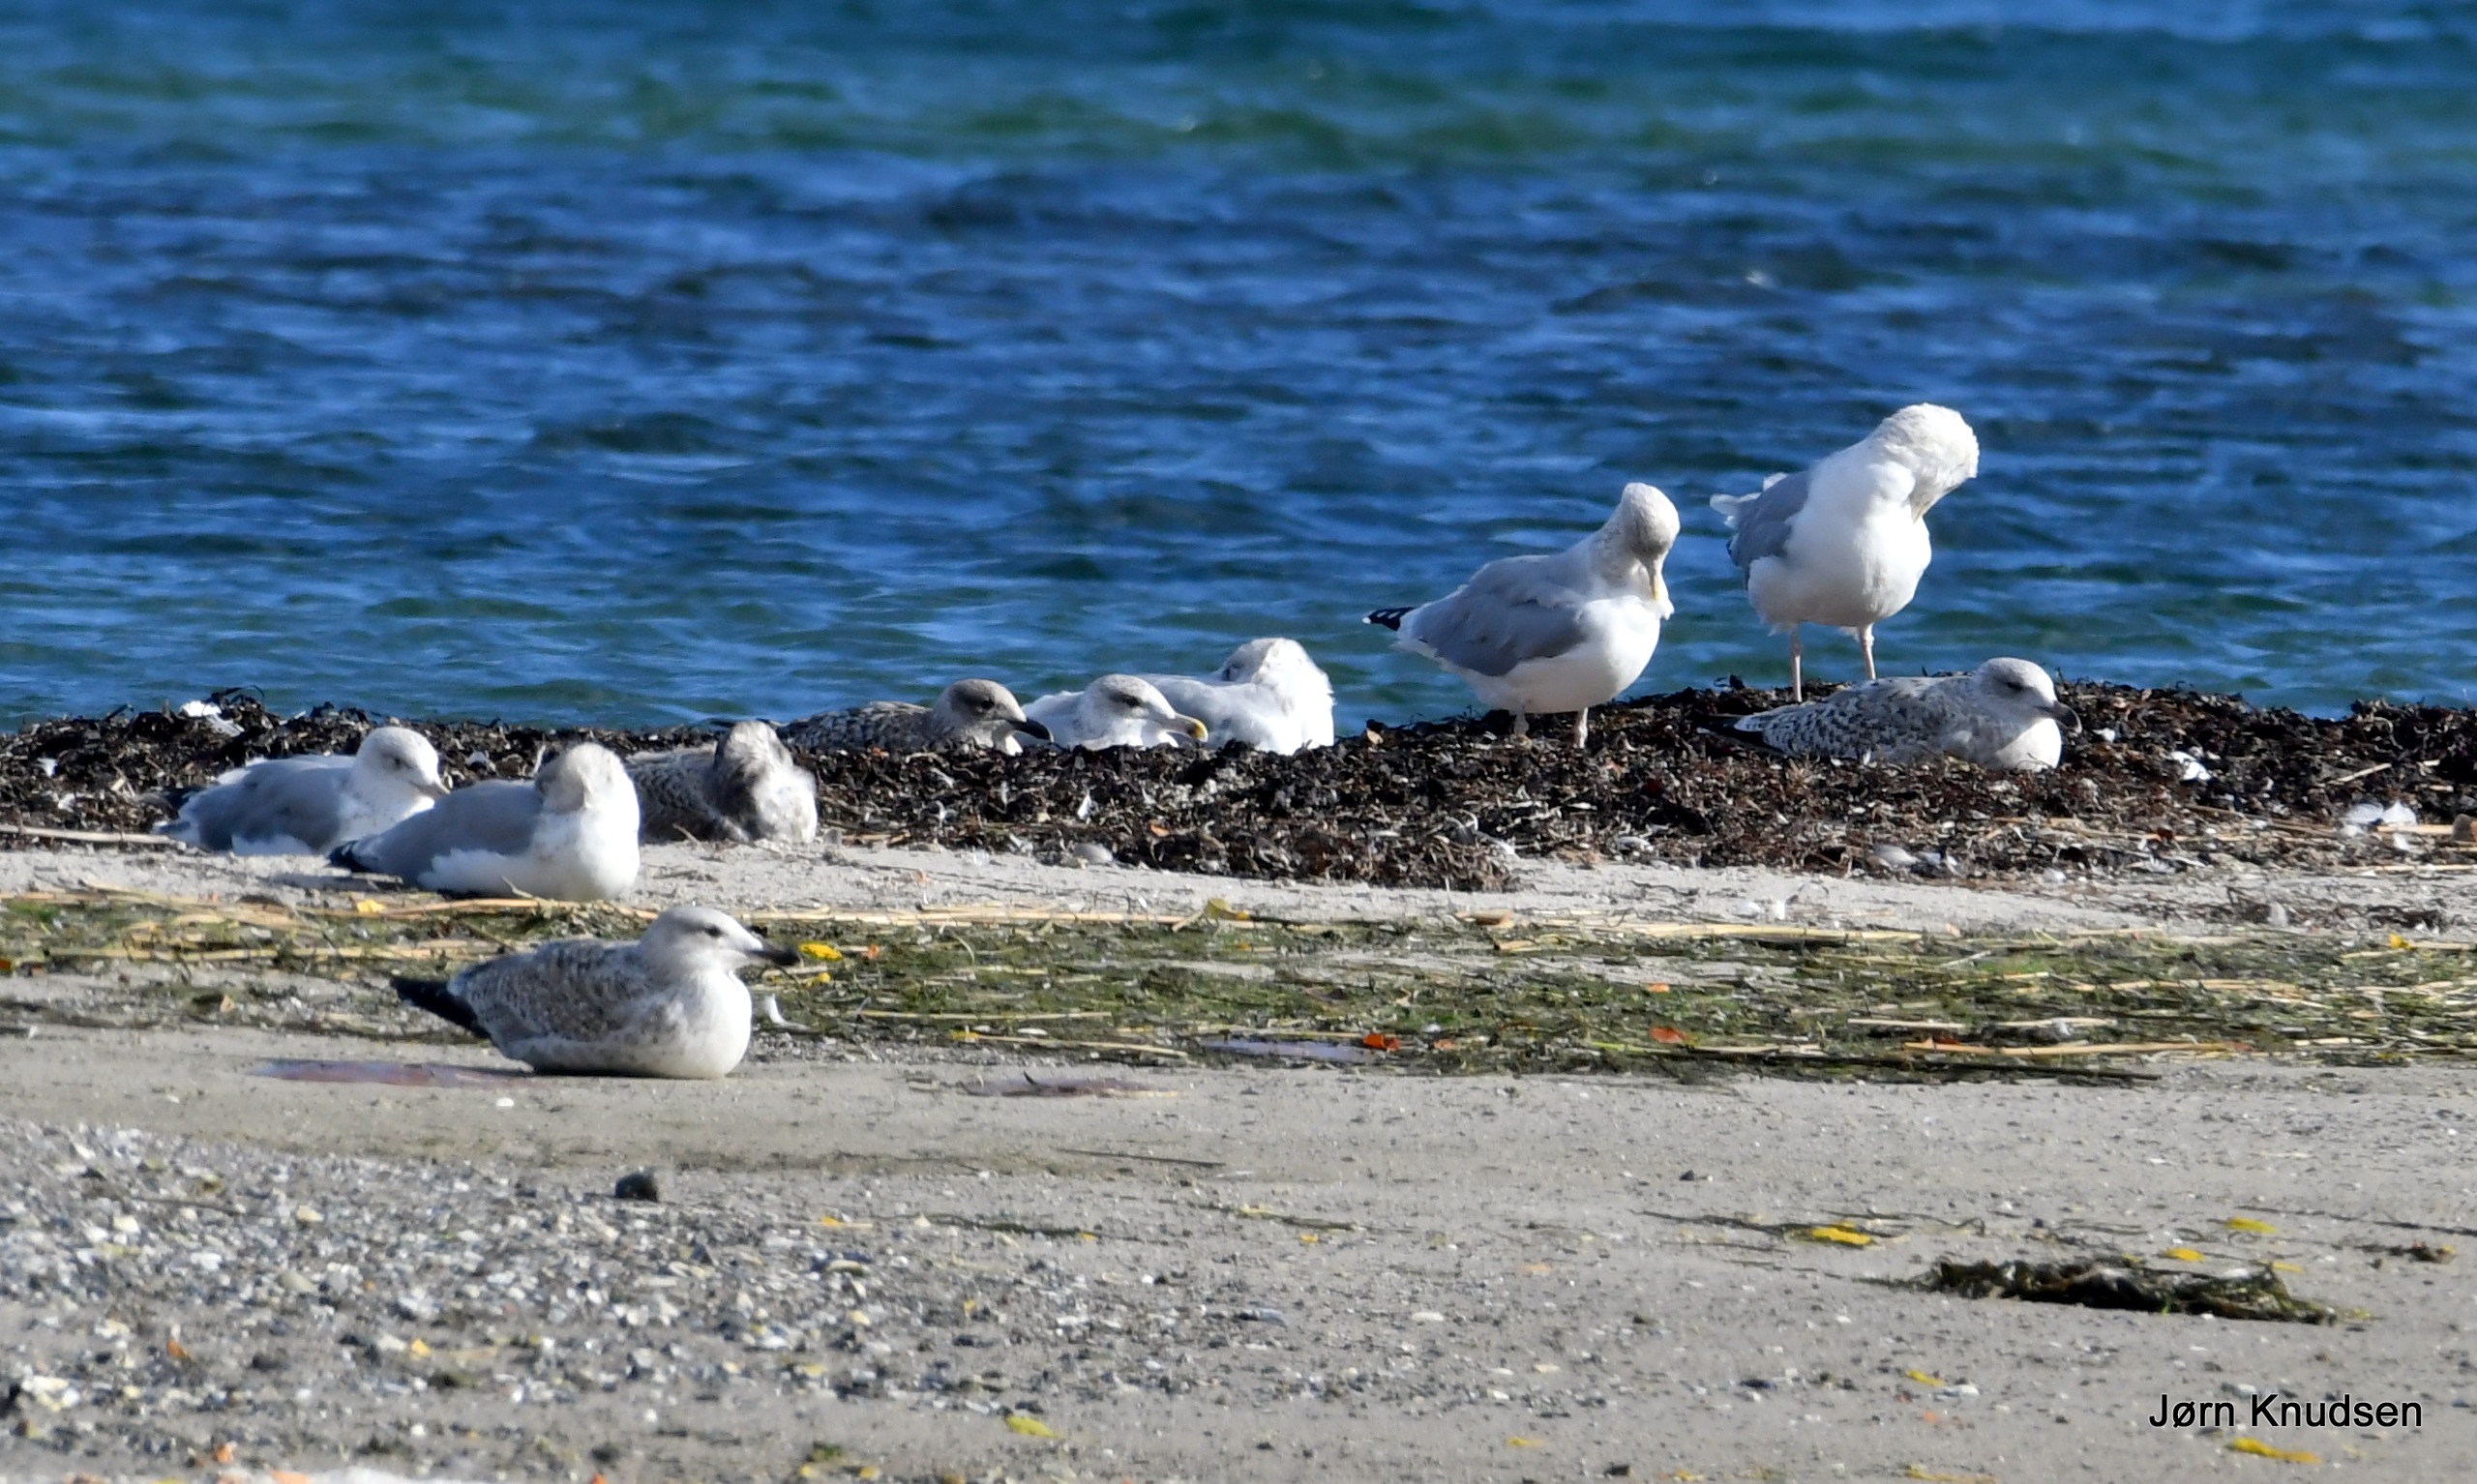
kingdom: Animalia
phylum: Chordata
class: Aves
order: Charadriiformes
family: Laridae
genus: Larus
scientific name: Larus argentatus
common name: Sølvmåge
